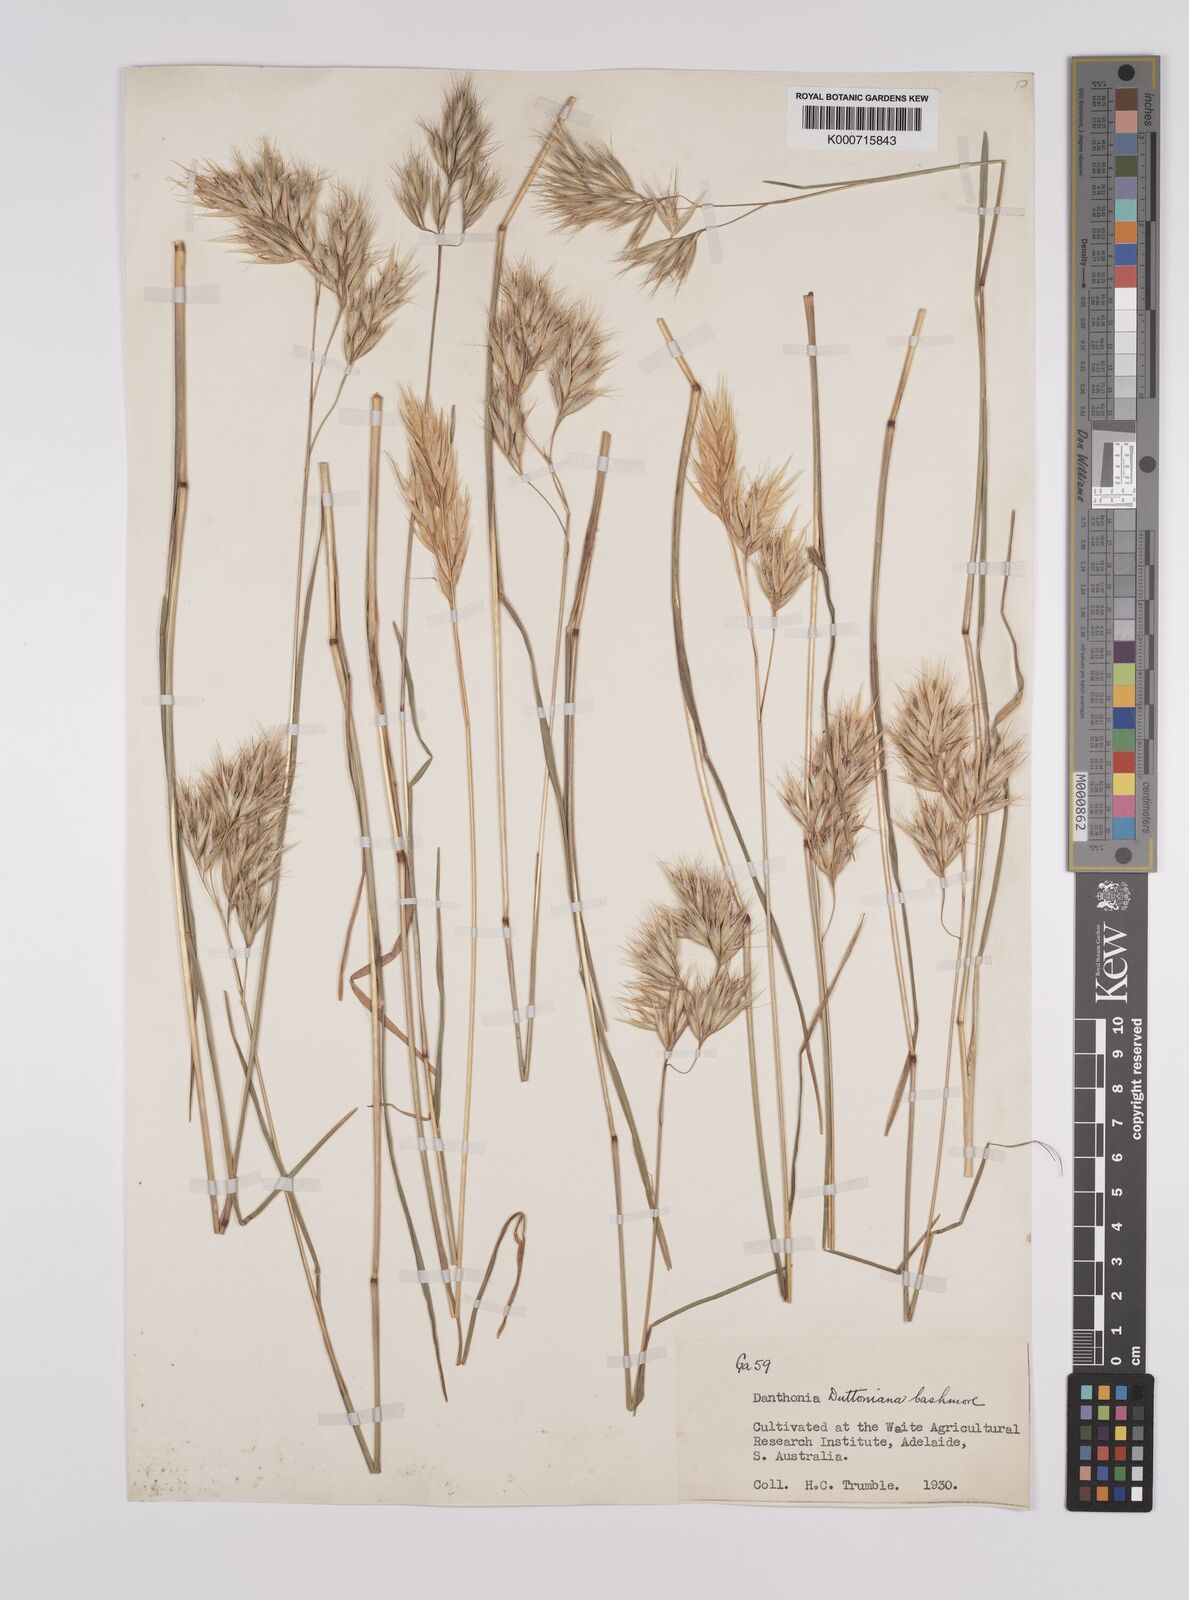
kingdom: Plantae
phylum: Tracheophyta
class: Liliopsida
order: Poales
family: Poaceae
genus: Rytidosperma
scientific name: Rytidosperma duttonianum
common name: Brown-black wallaby grass
